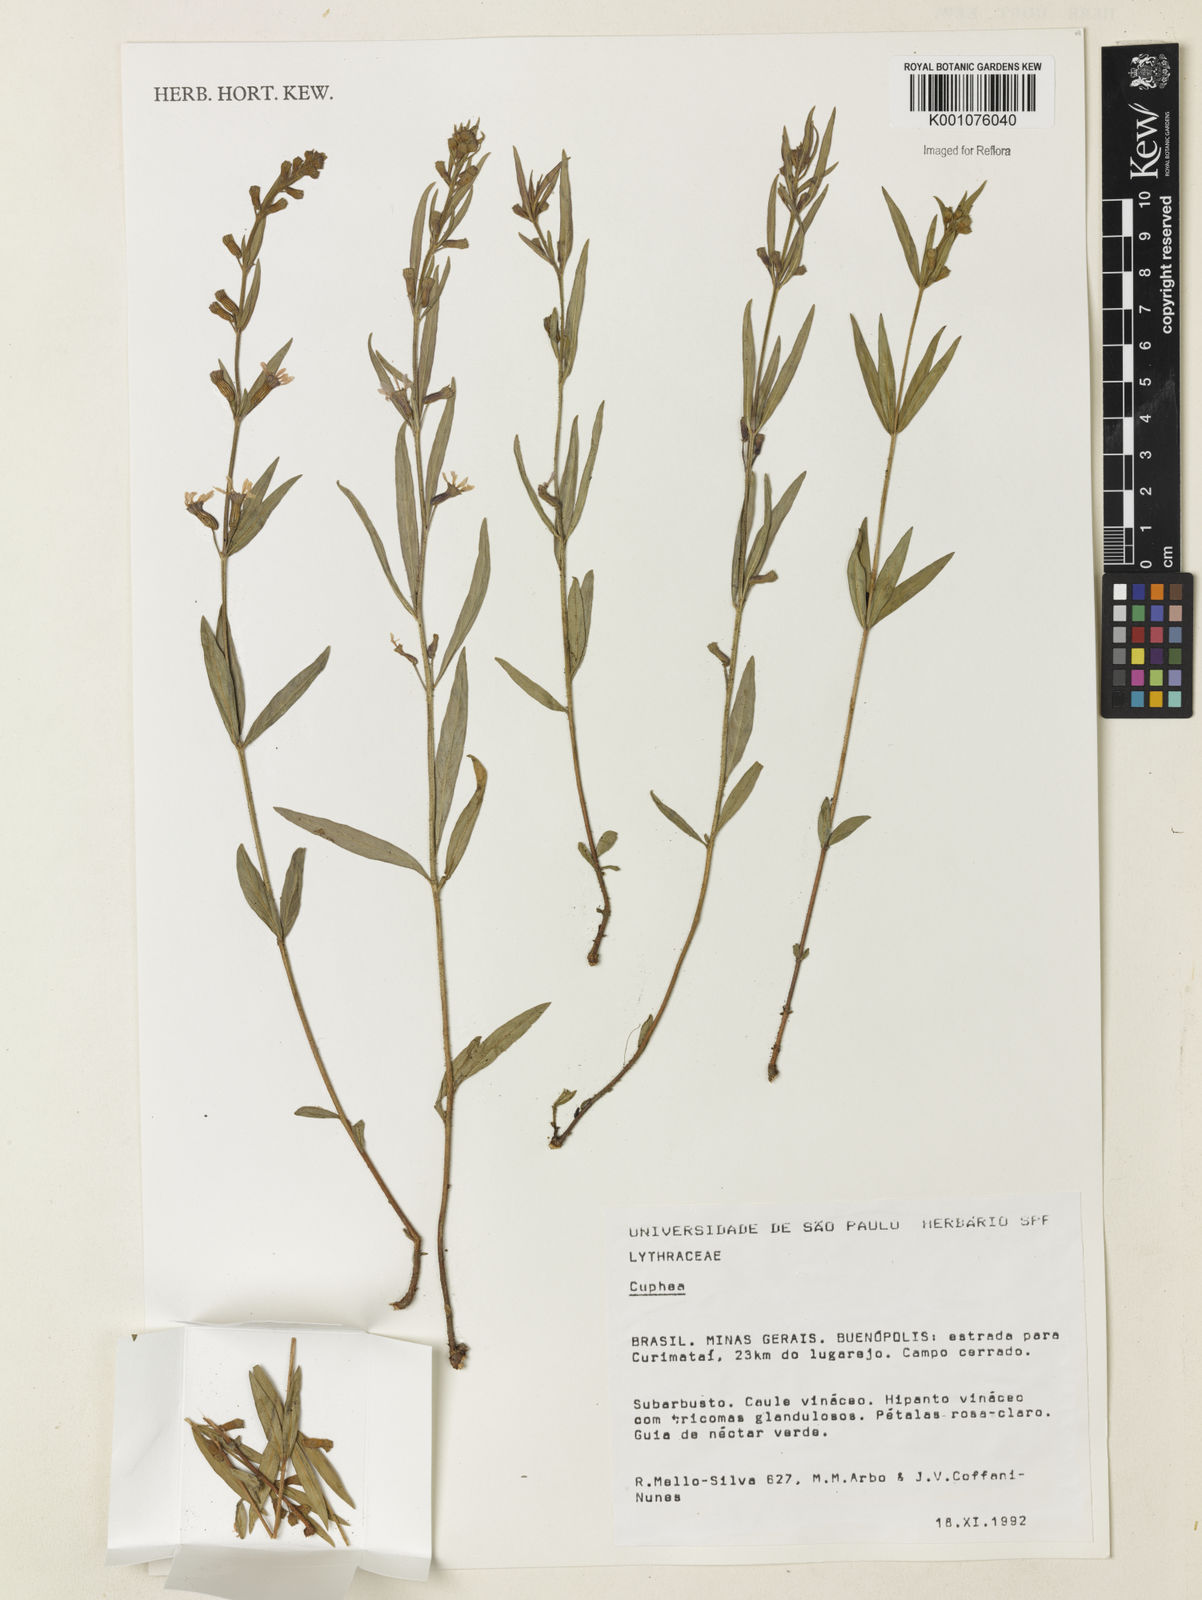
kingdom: Plantae
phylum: Tracheophyta
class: Magnoliopsida
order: Myrtales
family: Lythraceae
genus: Cuphea
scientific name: Cuphea
